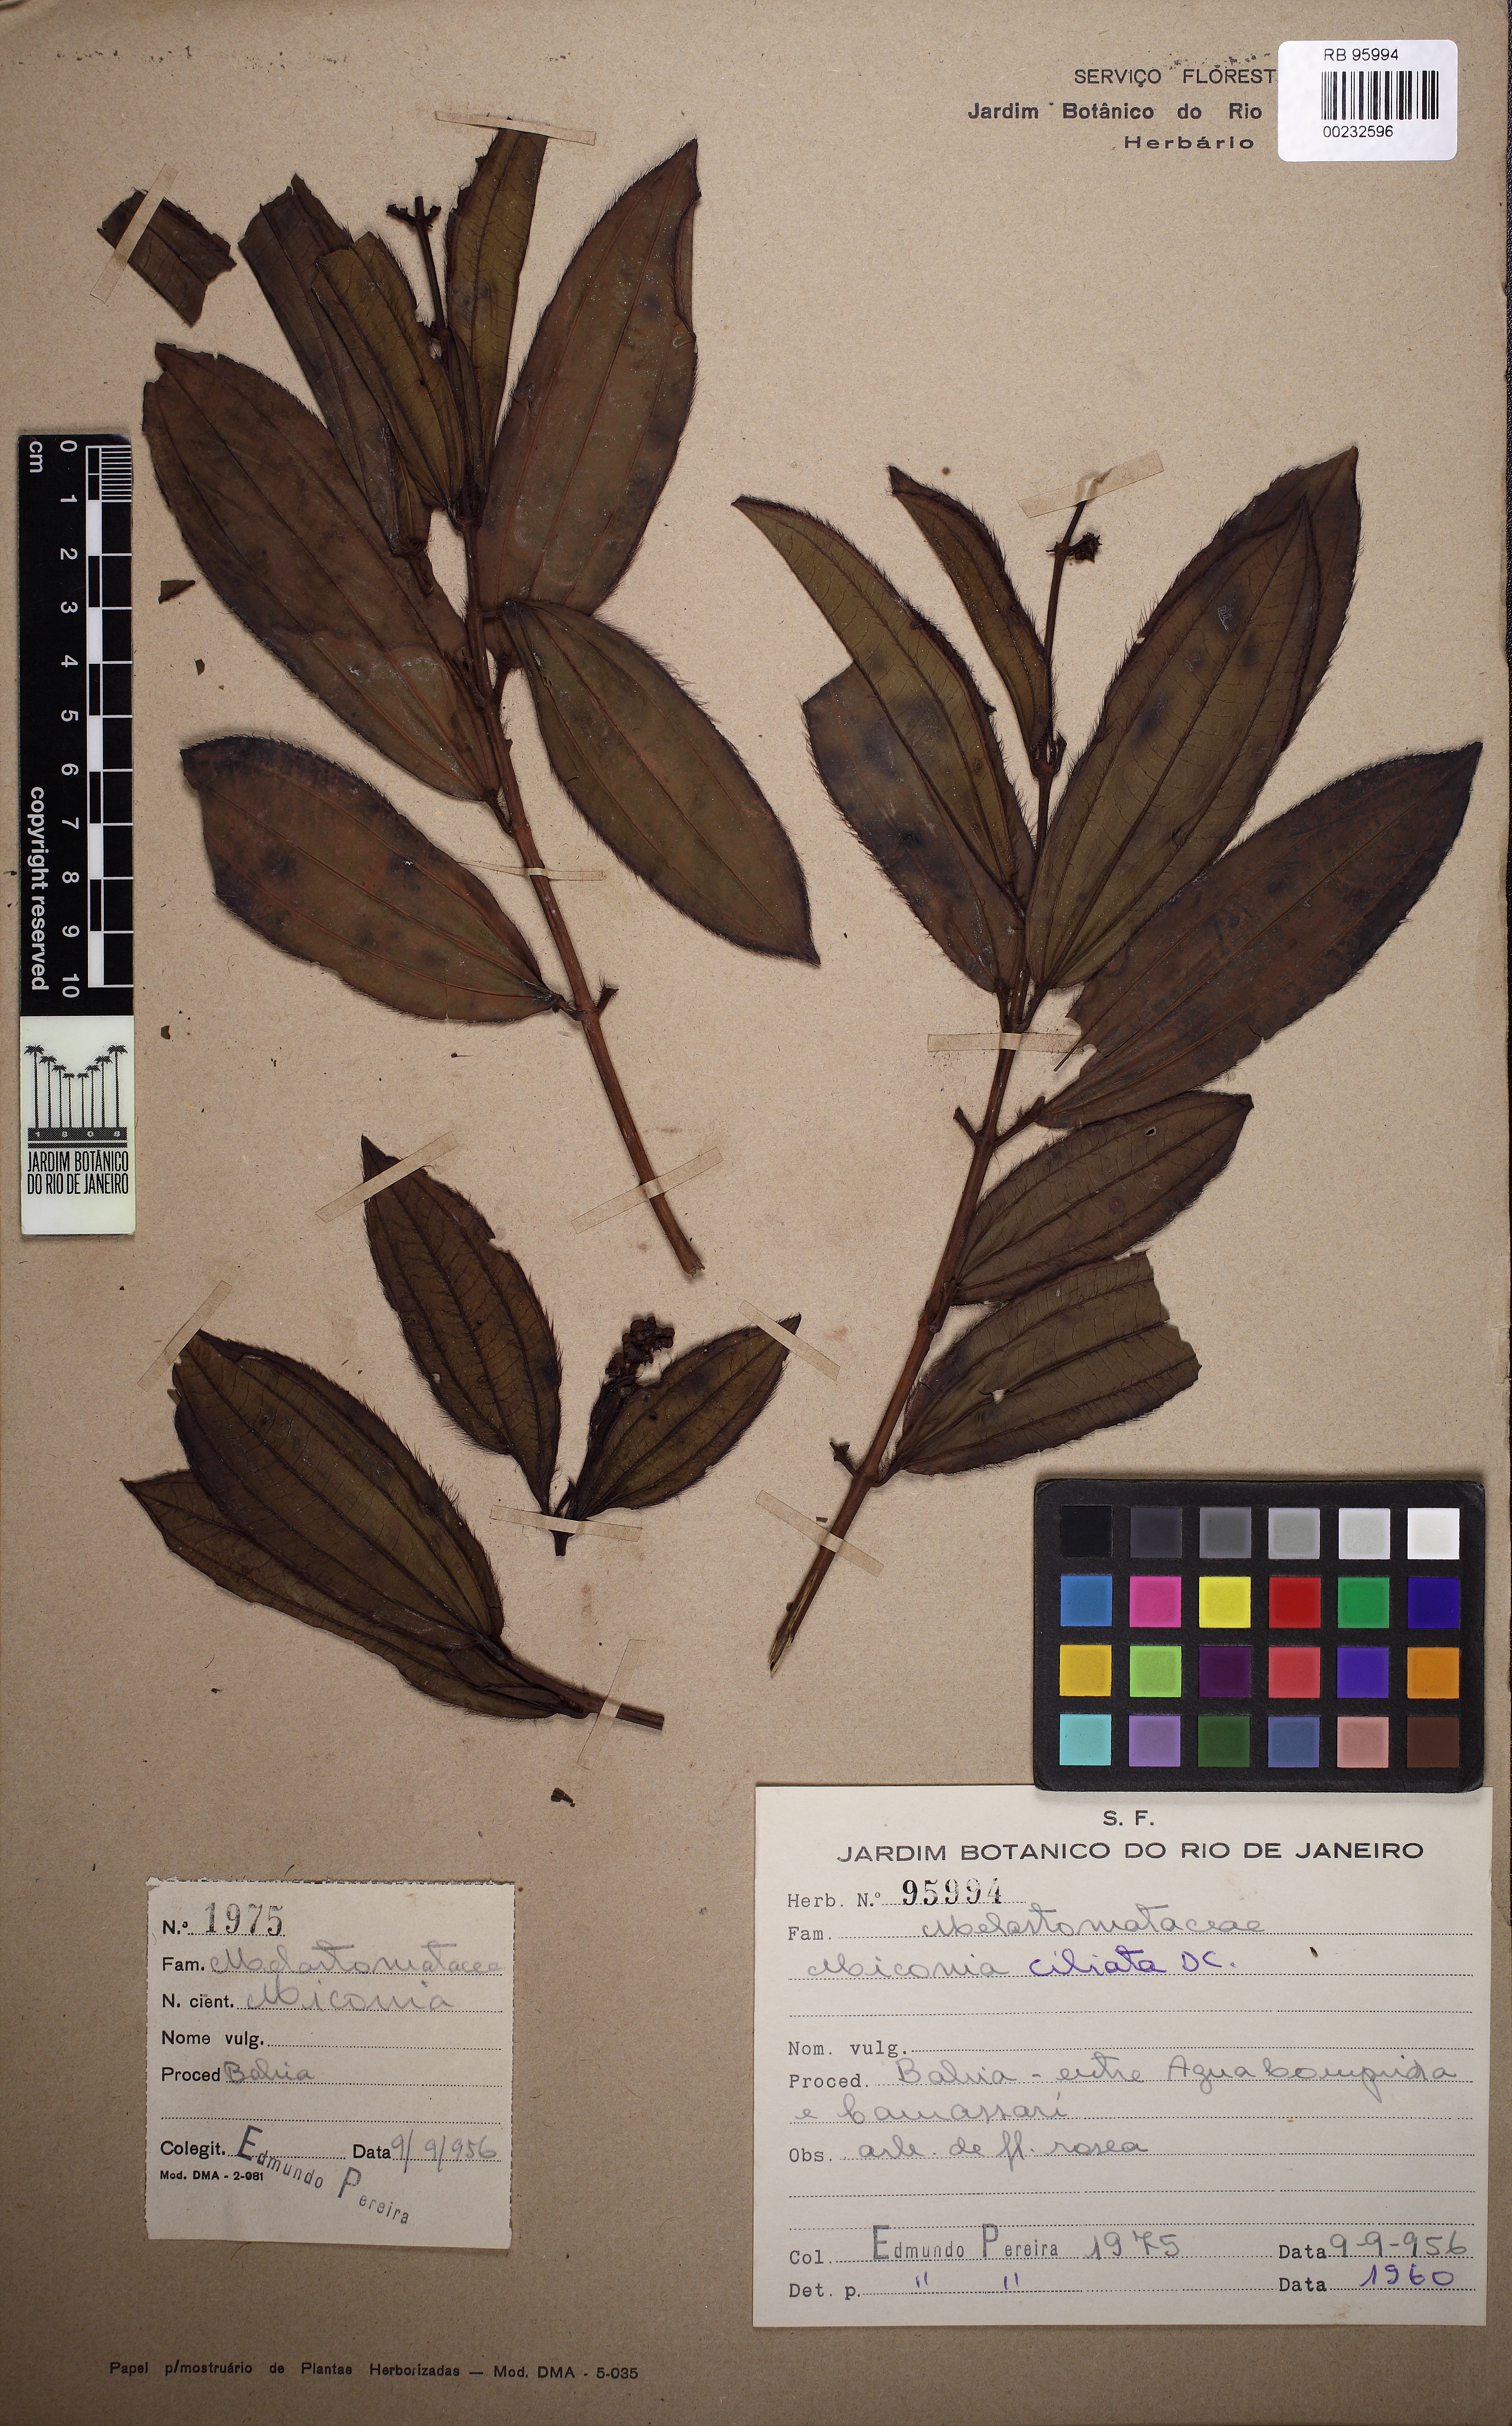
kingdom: Plantae
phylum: Tracheophyta
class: Magnoliopsida
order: Myrtales
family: Melastomataceae
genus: Miconia
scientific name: Miconia ciliata
